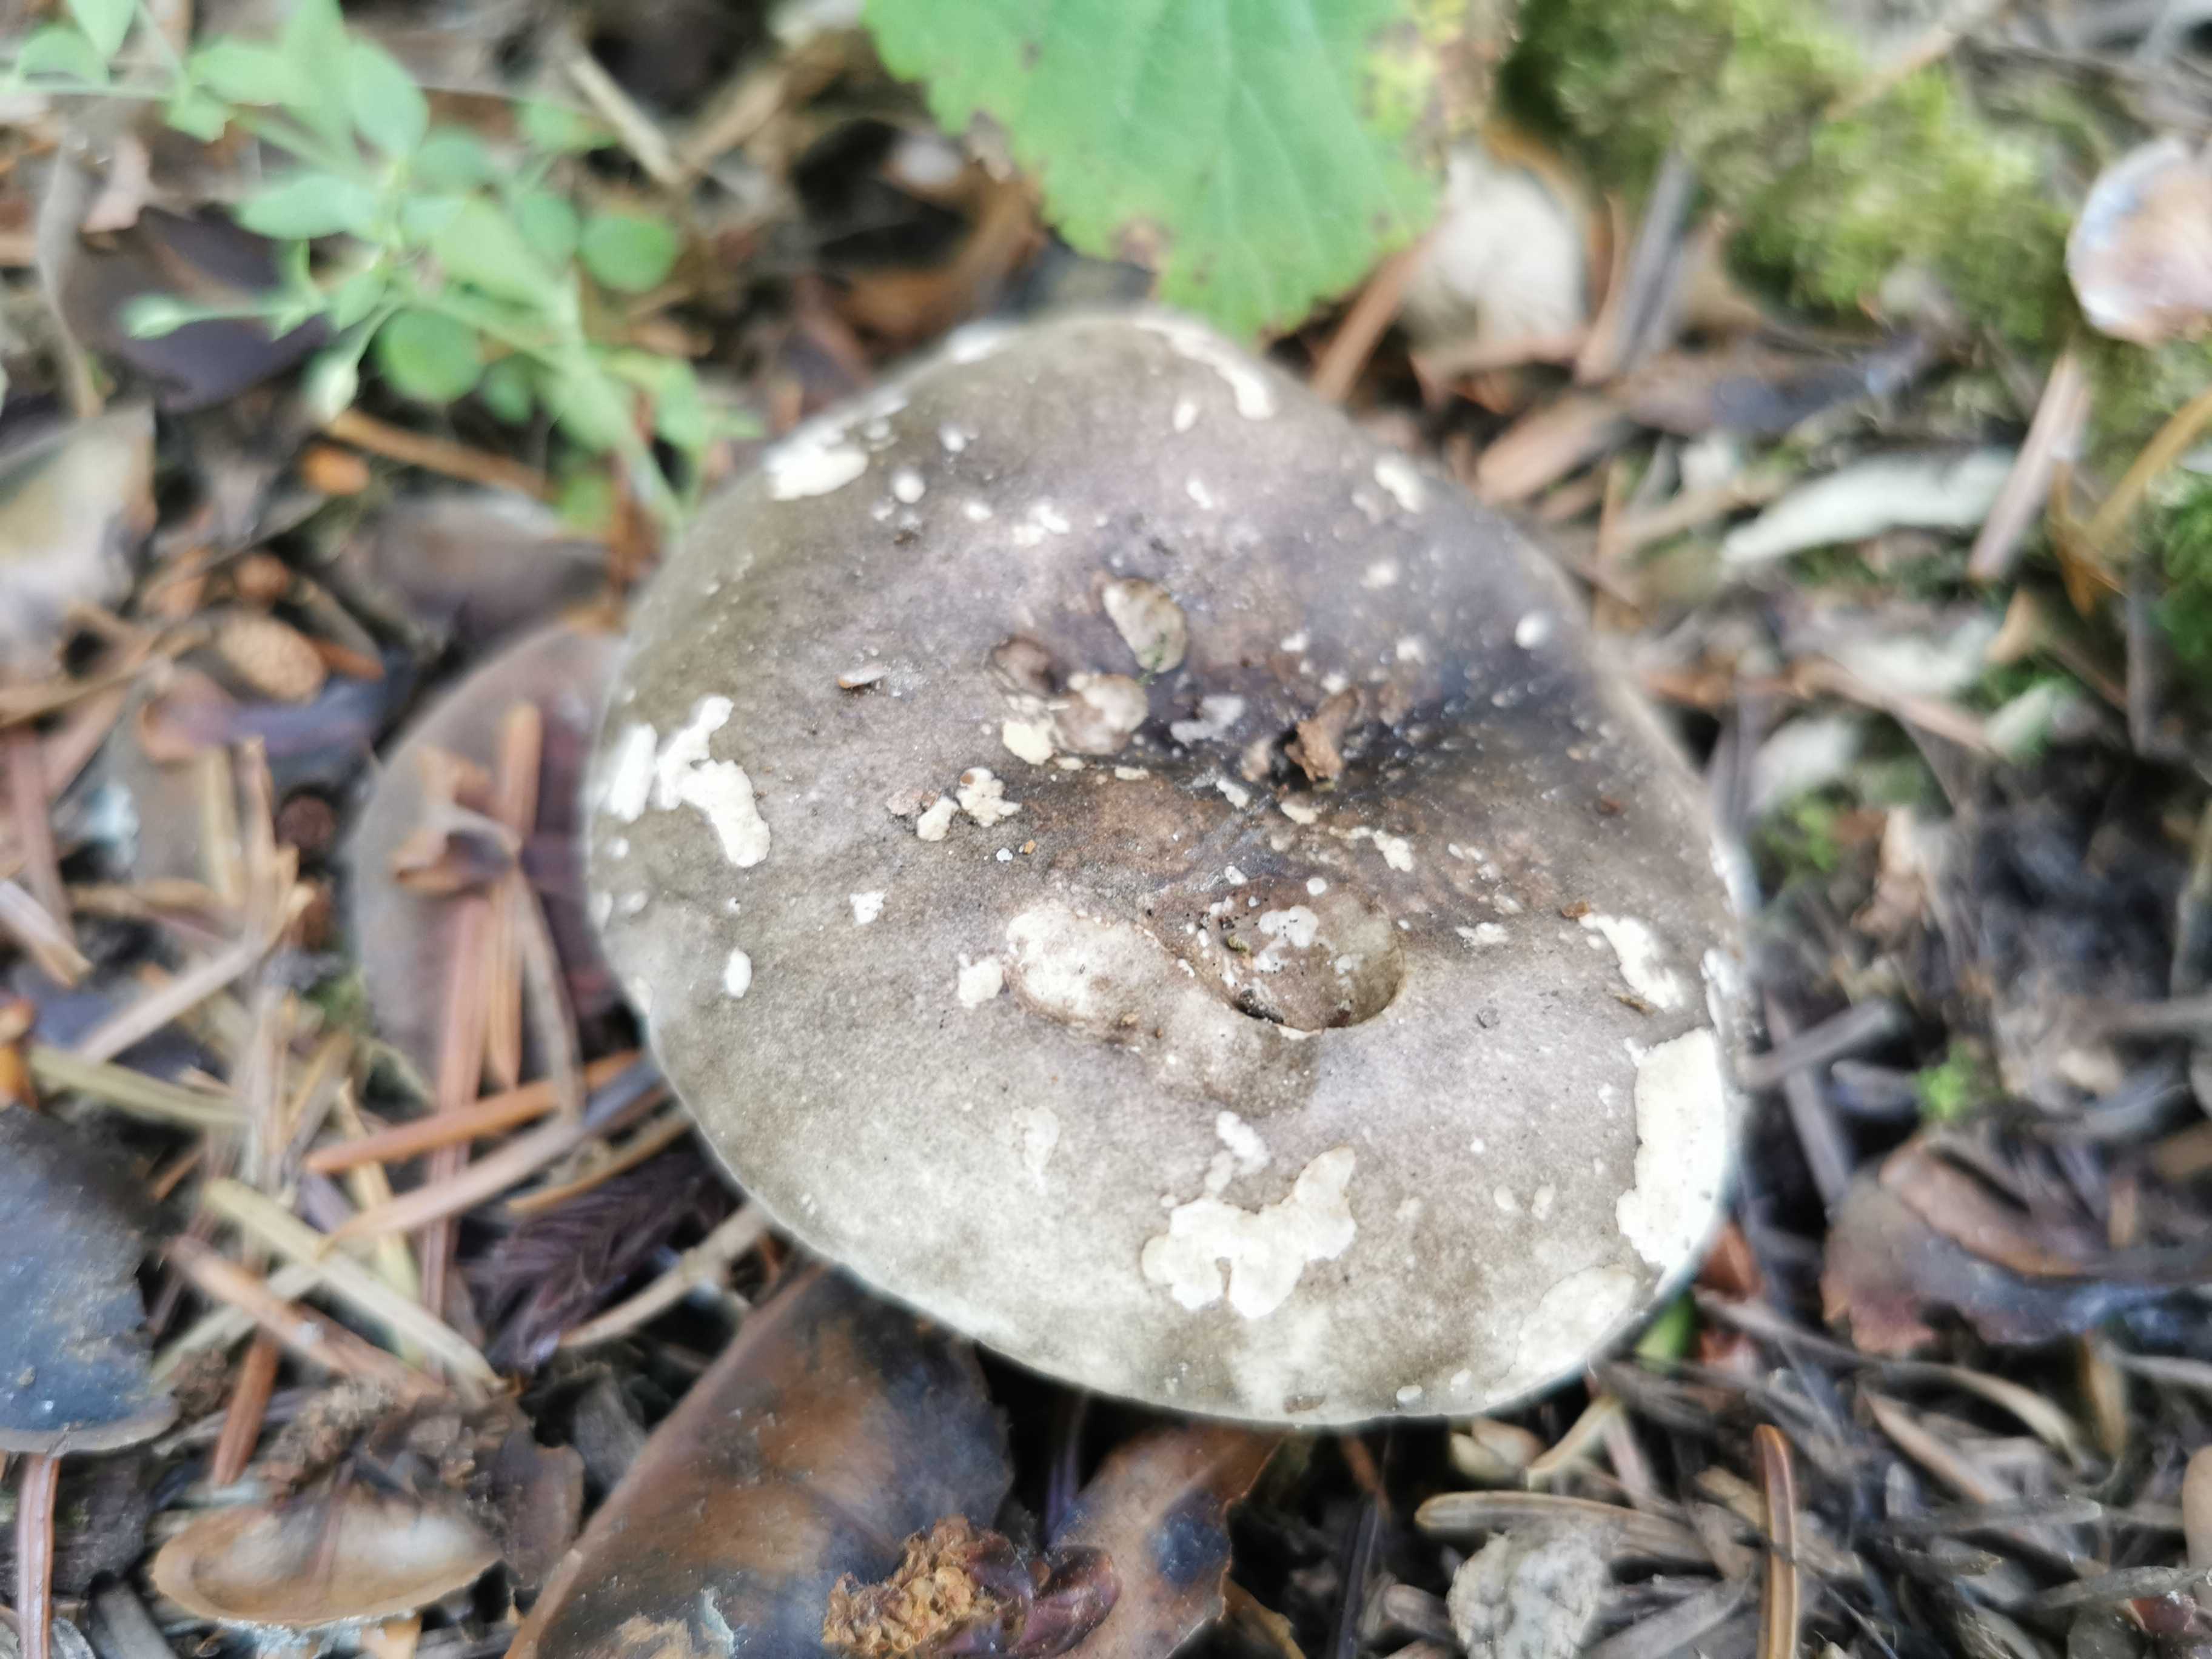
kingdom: Fungi
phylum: Basidiomycota
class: Agaricomycetes
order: Russulales
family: Russulaceae
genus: Russula
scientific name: Russula adusta
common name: sværtende skørhat
